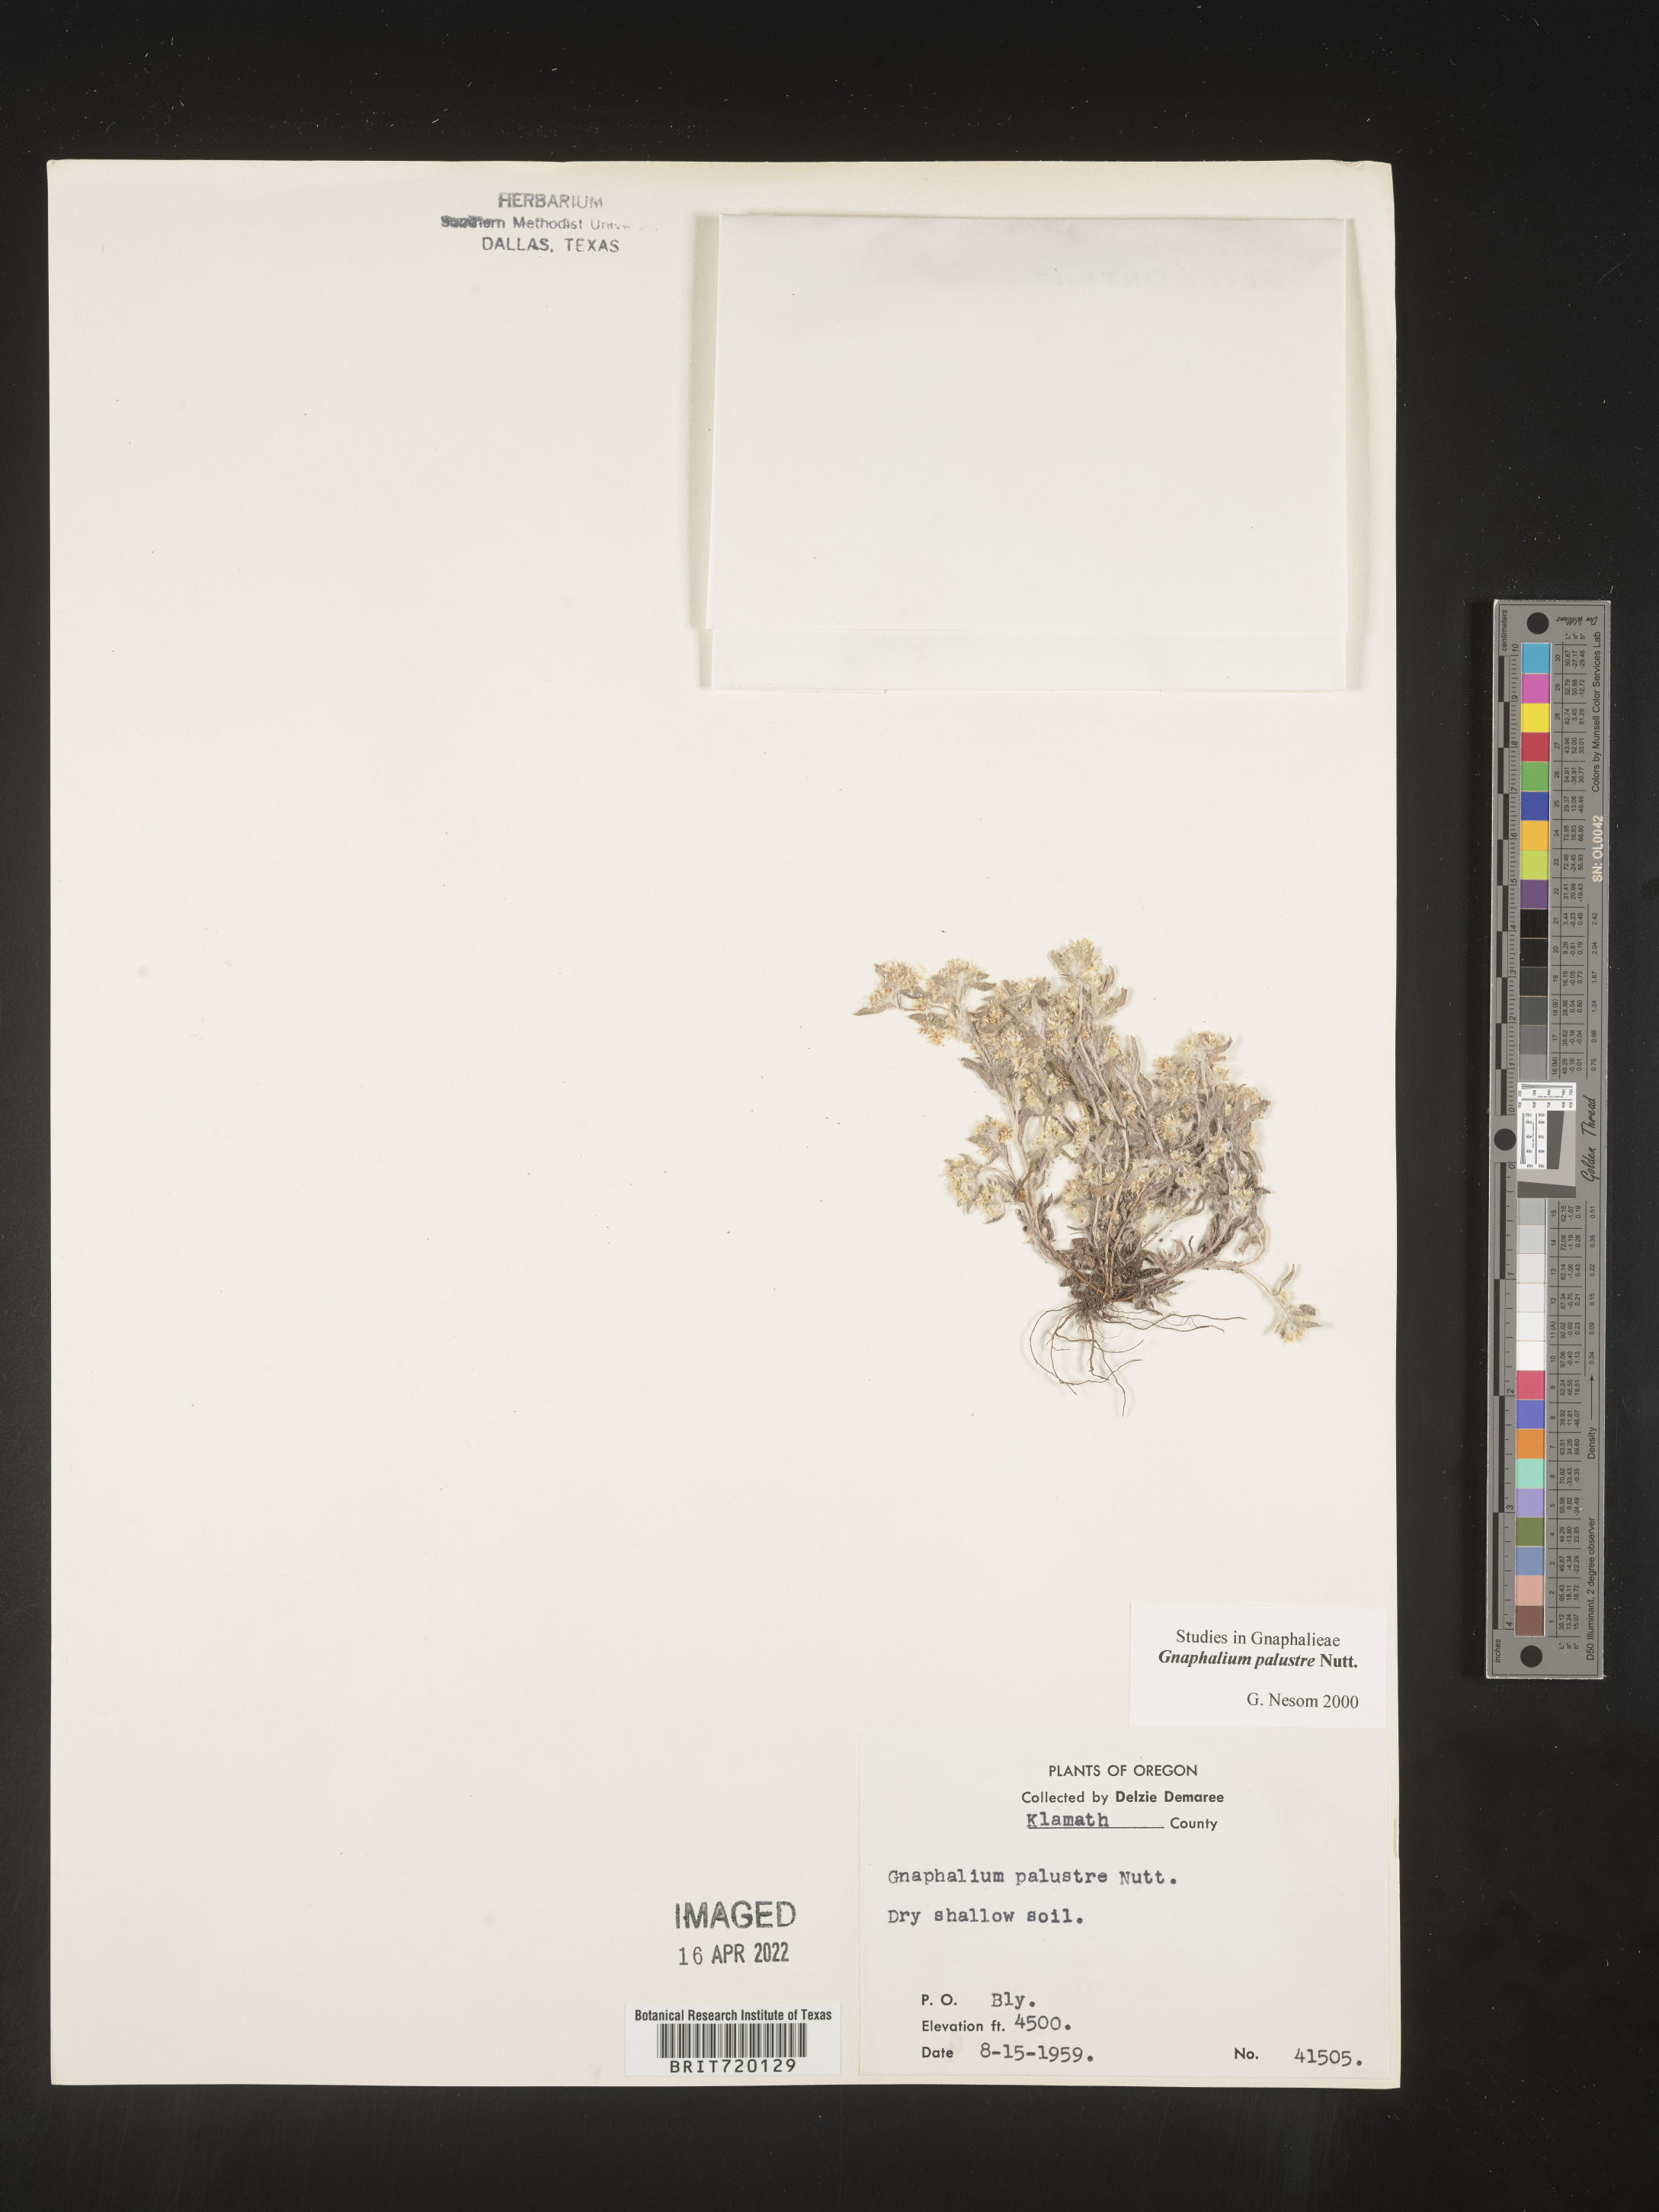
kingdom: Plantae
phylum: Tracheophyta
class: Magnoliopsida
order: Asterales
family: Asteraceae
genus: Gnaphalium
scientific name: Gnaphalium palustre
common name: Western marsh cudweed
